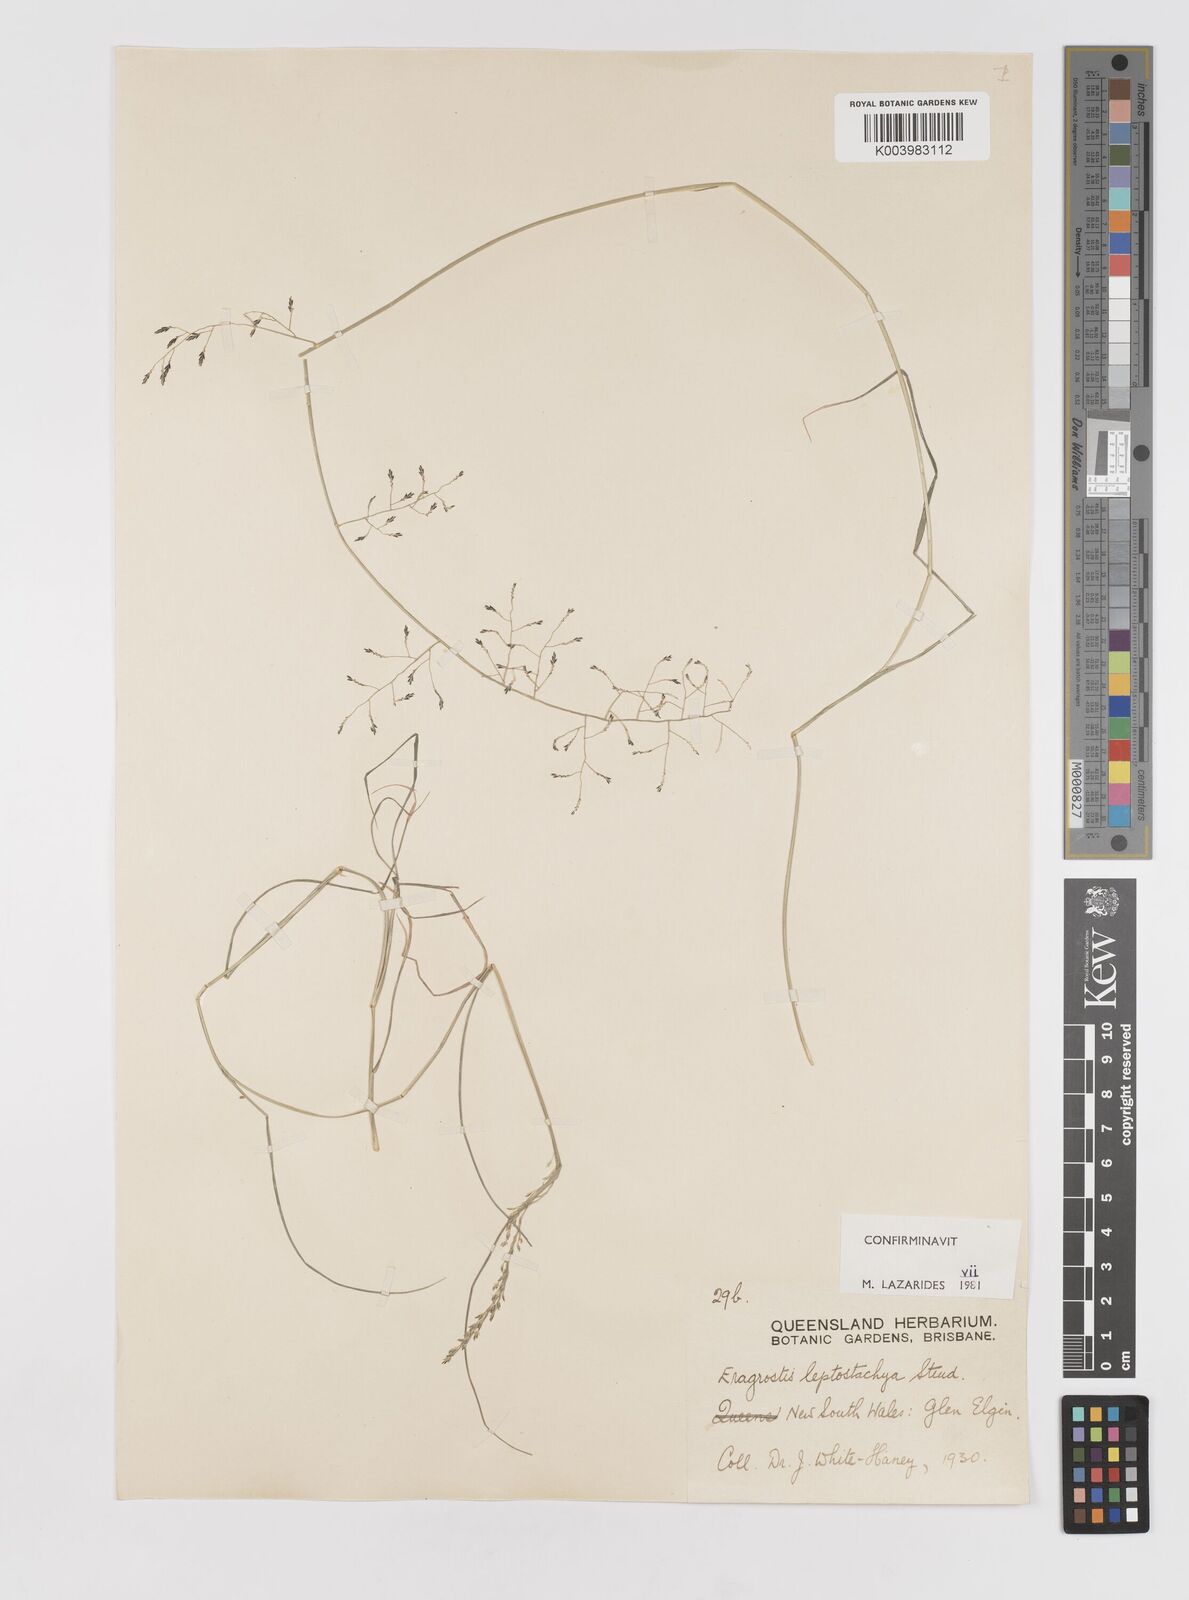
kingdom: Plantae
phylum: Tracheophyta
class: Liliopsida
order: Poales
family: Poaceae
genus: Eragrostis
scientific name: Eragrostis leptostachya
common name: Australian lovegrass
